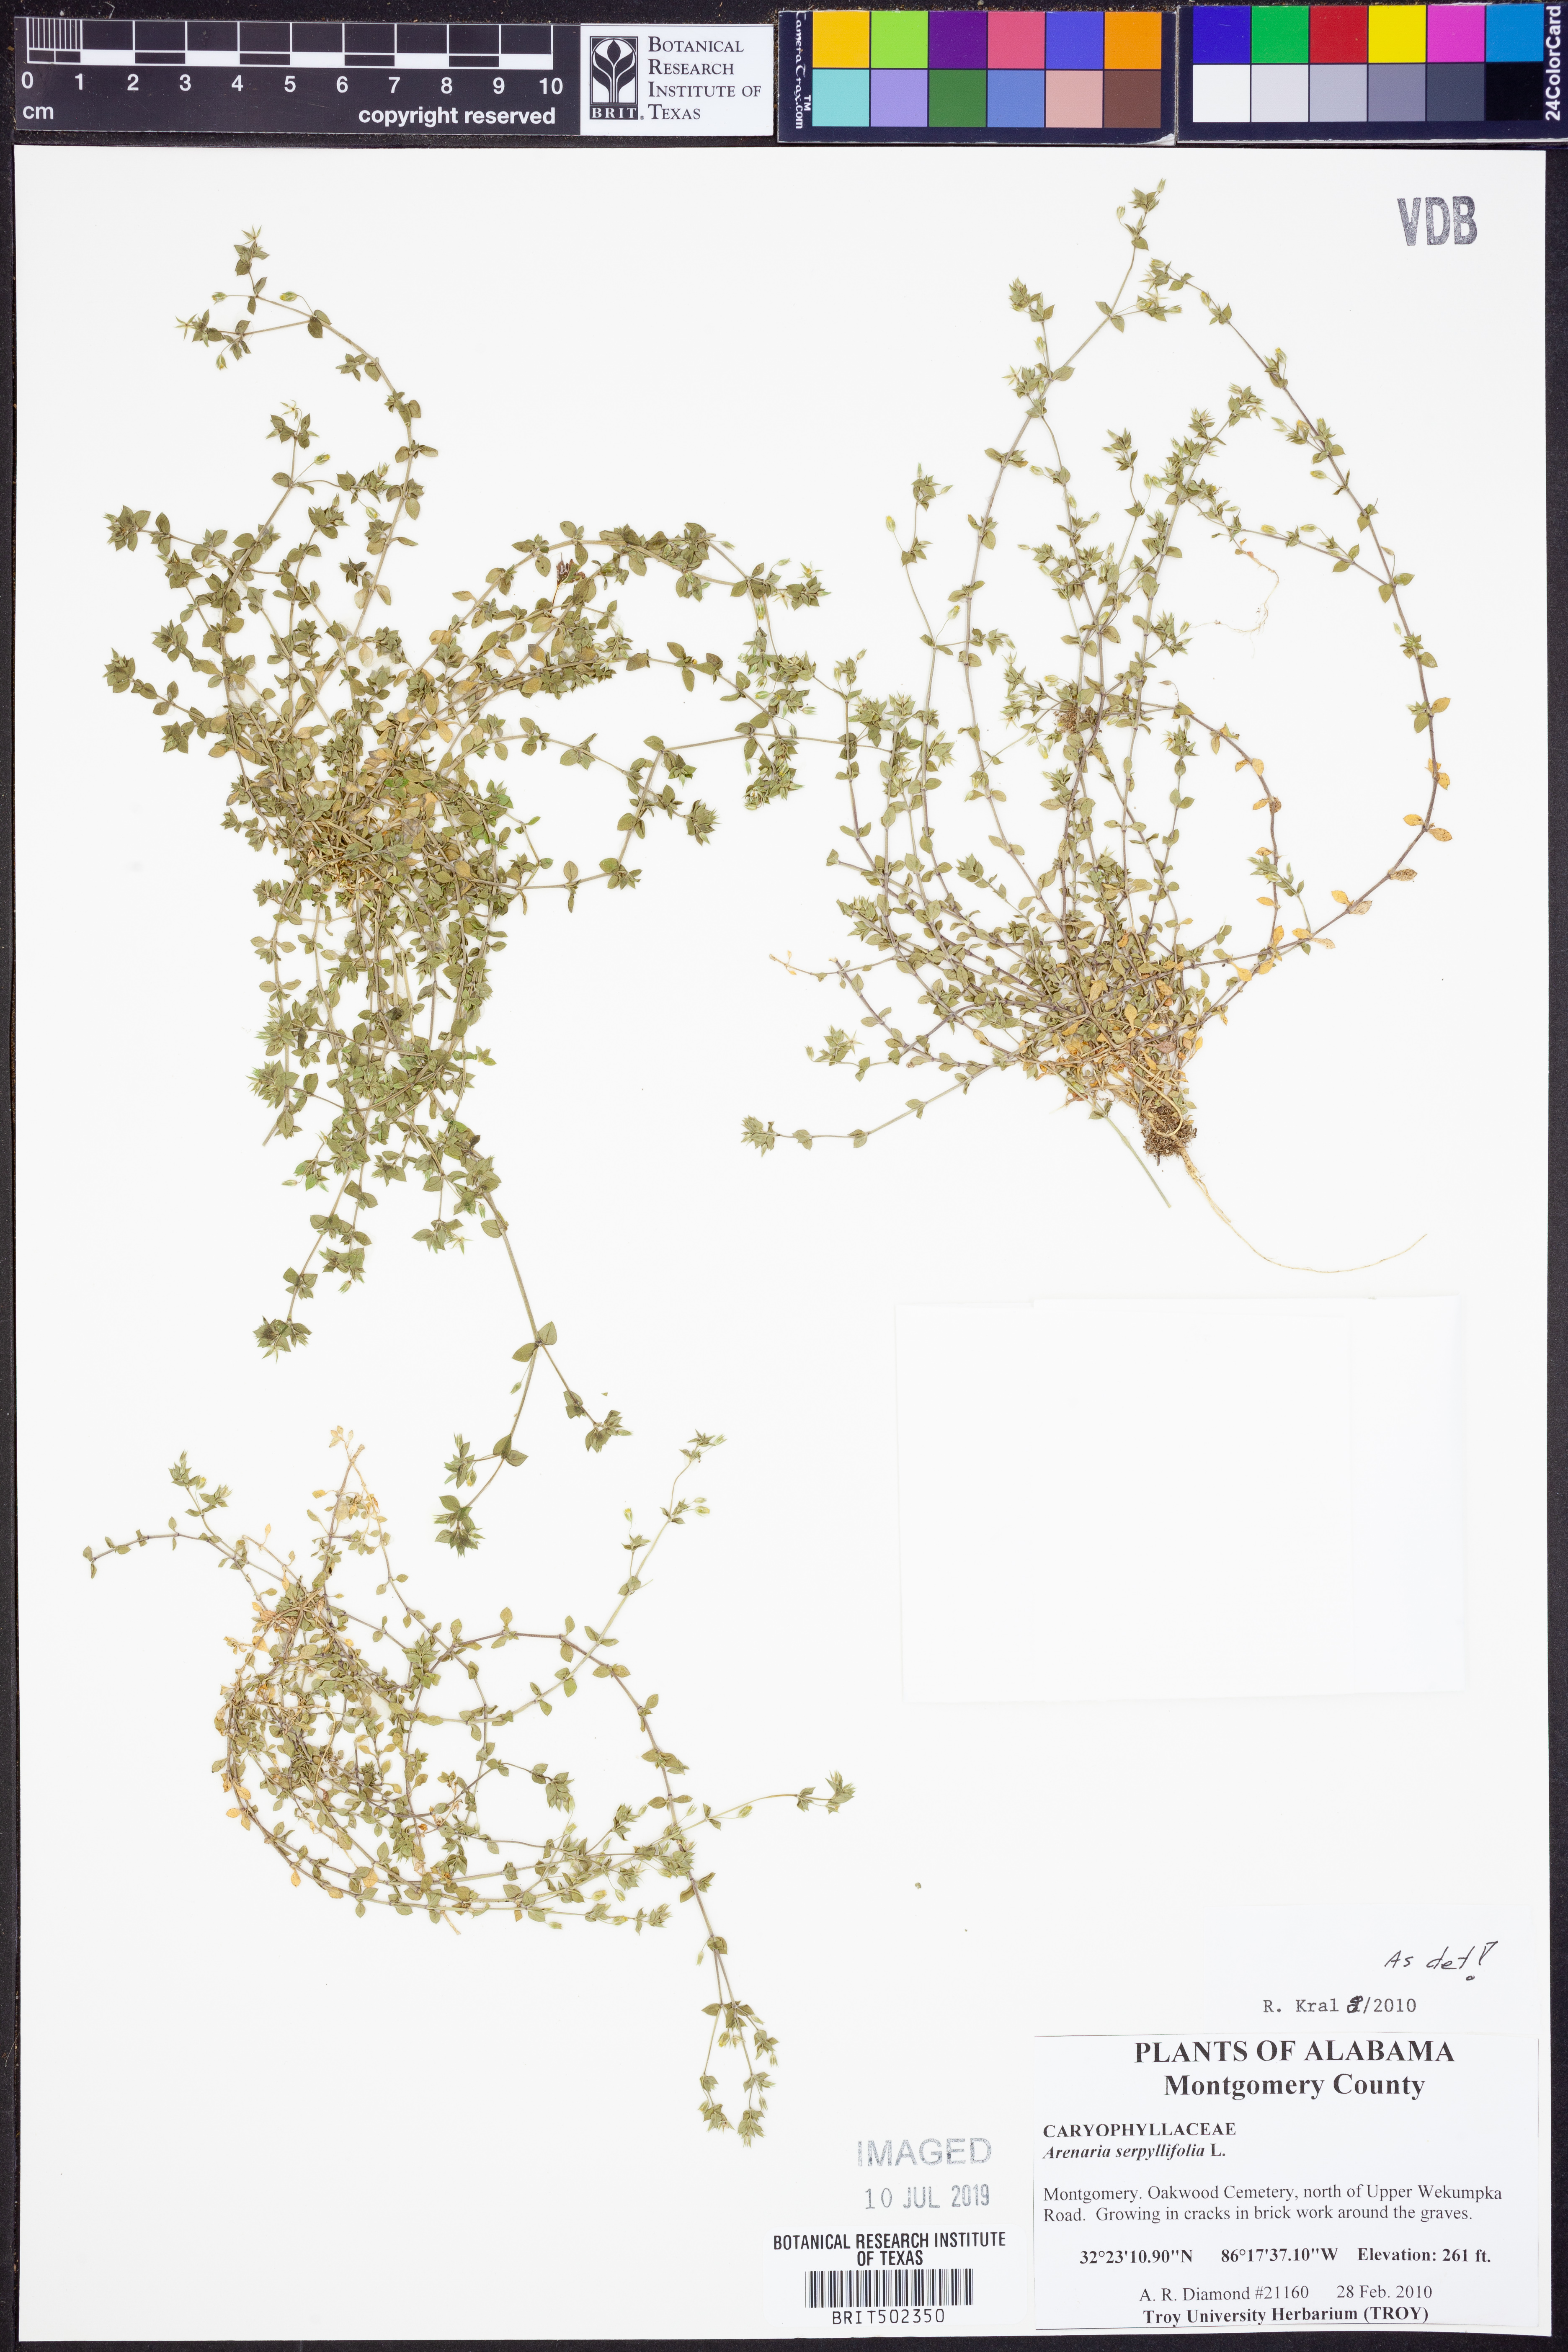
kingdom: Plantae
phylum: Tracheophyta
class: Magnoliopsida
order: Caryophyllales
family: Caryophyllaceae
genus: Arenaria
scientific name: Arenaria serpyllifolia
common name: Thyme-leaved sandwort
